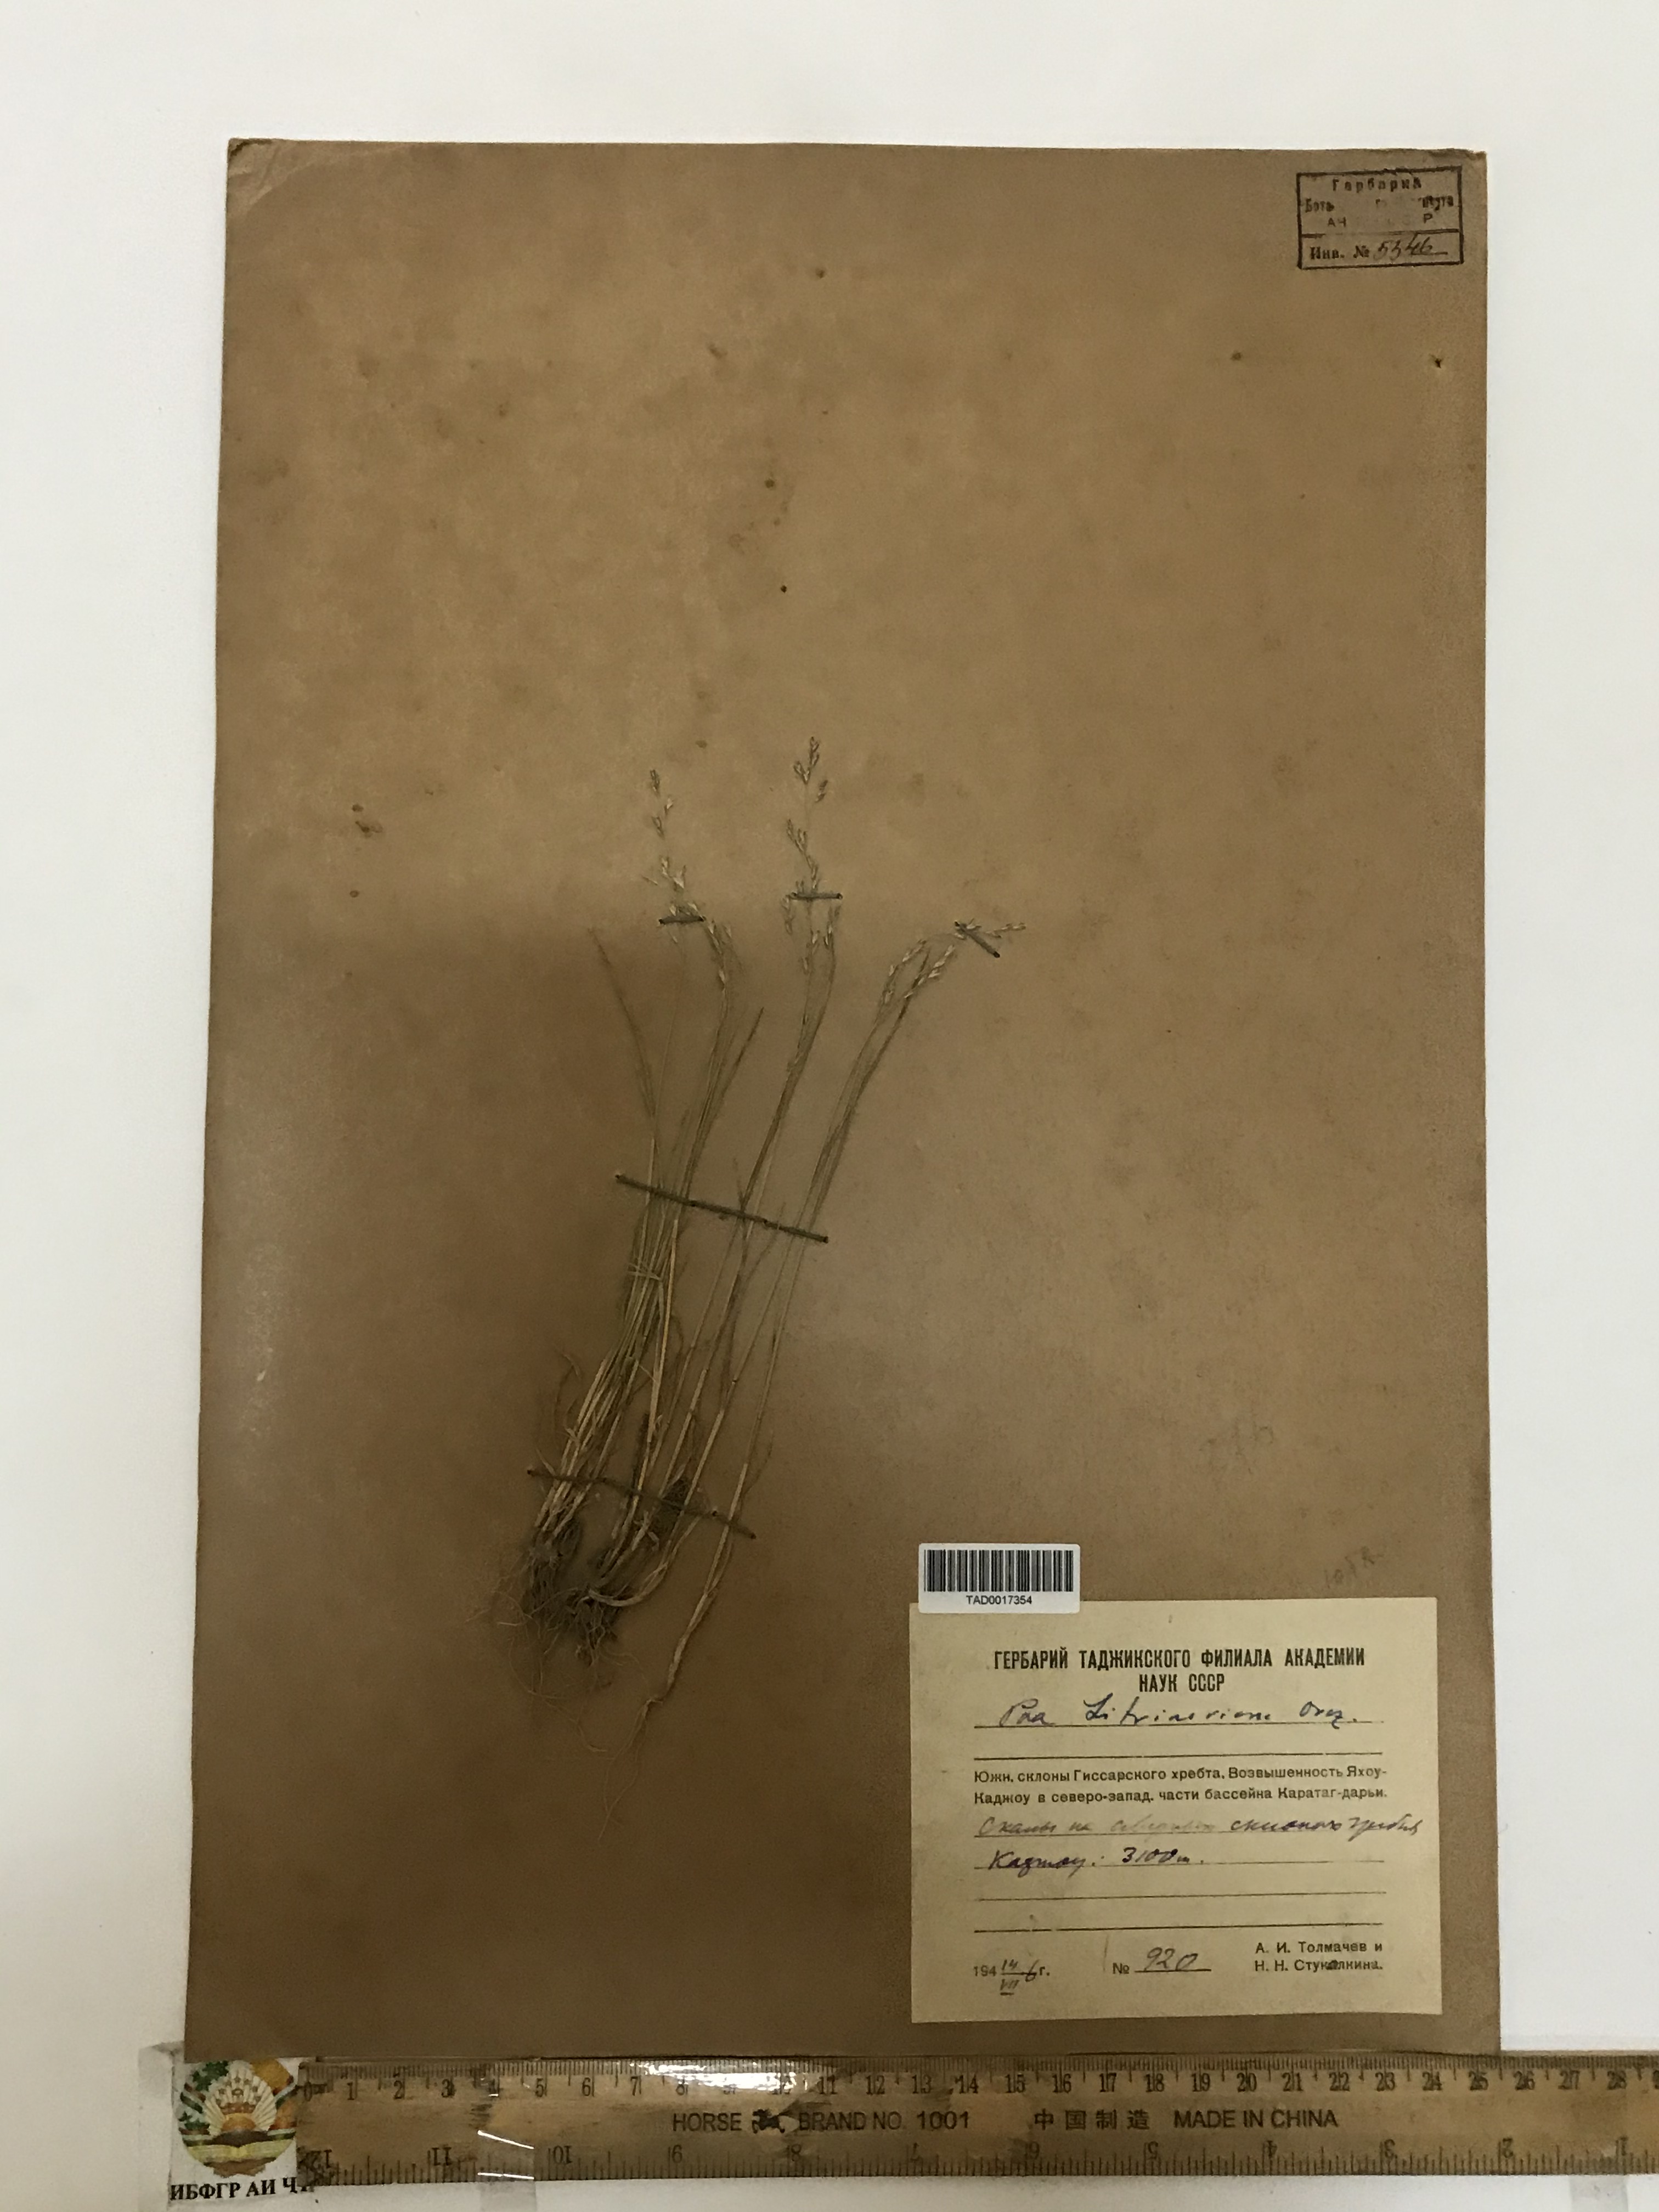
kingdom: Plantae
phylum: Tracheophyta
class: Liliopsida
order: Poales
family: Poaceae
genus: Poa
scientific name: Poa glauca
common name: Glaucous bluegrass
